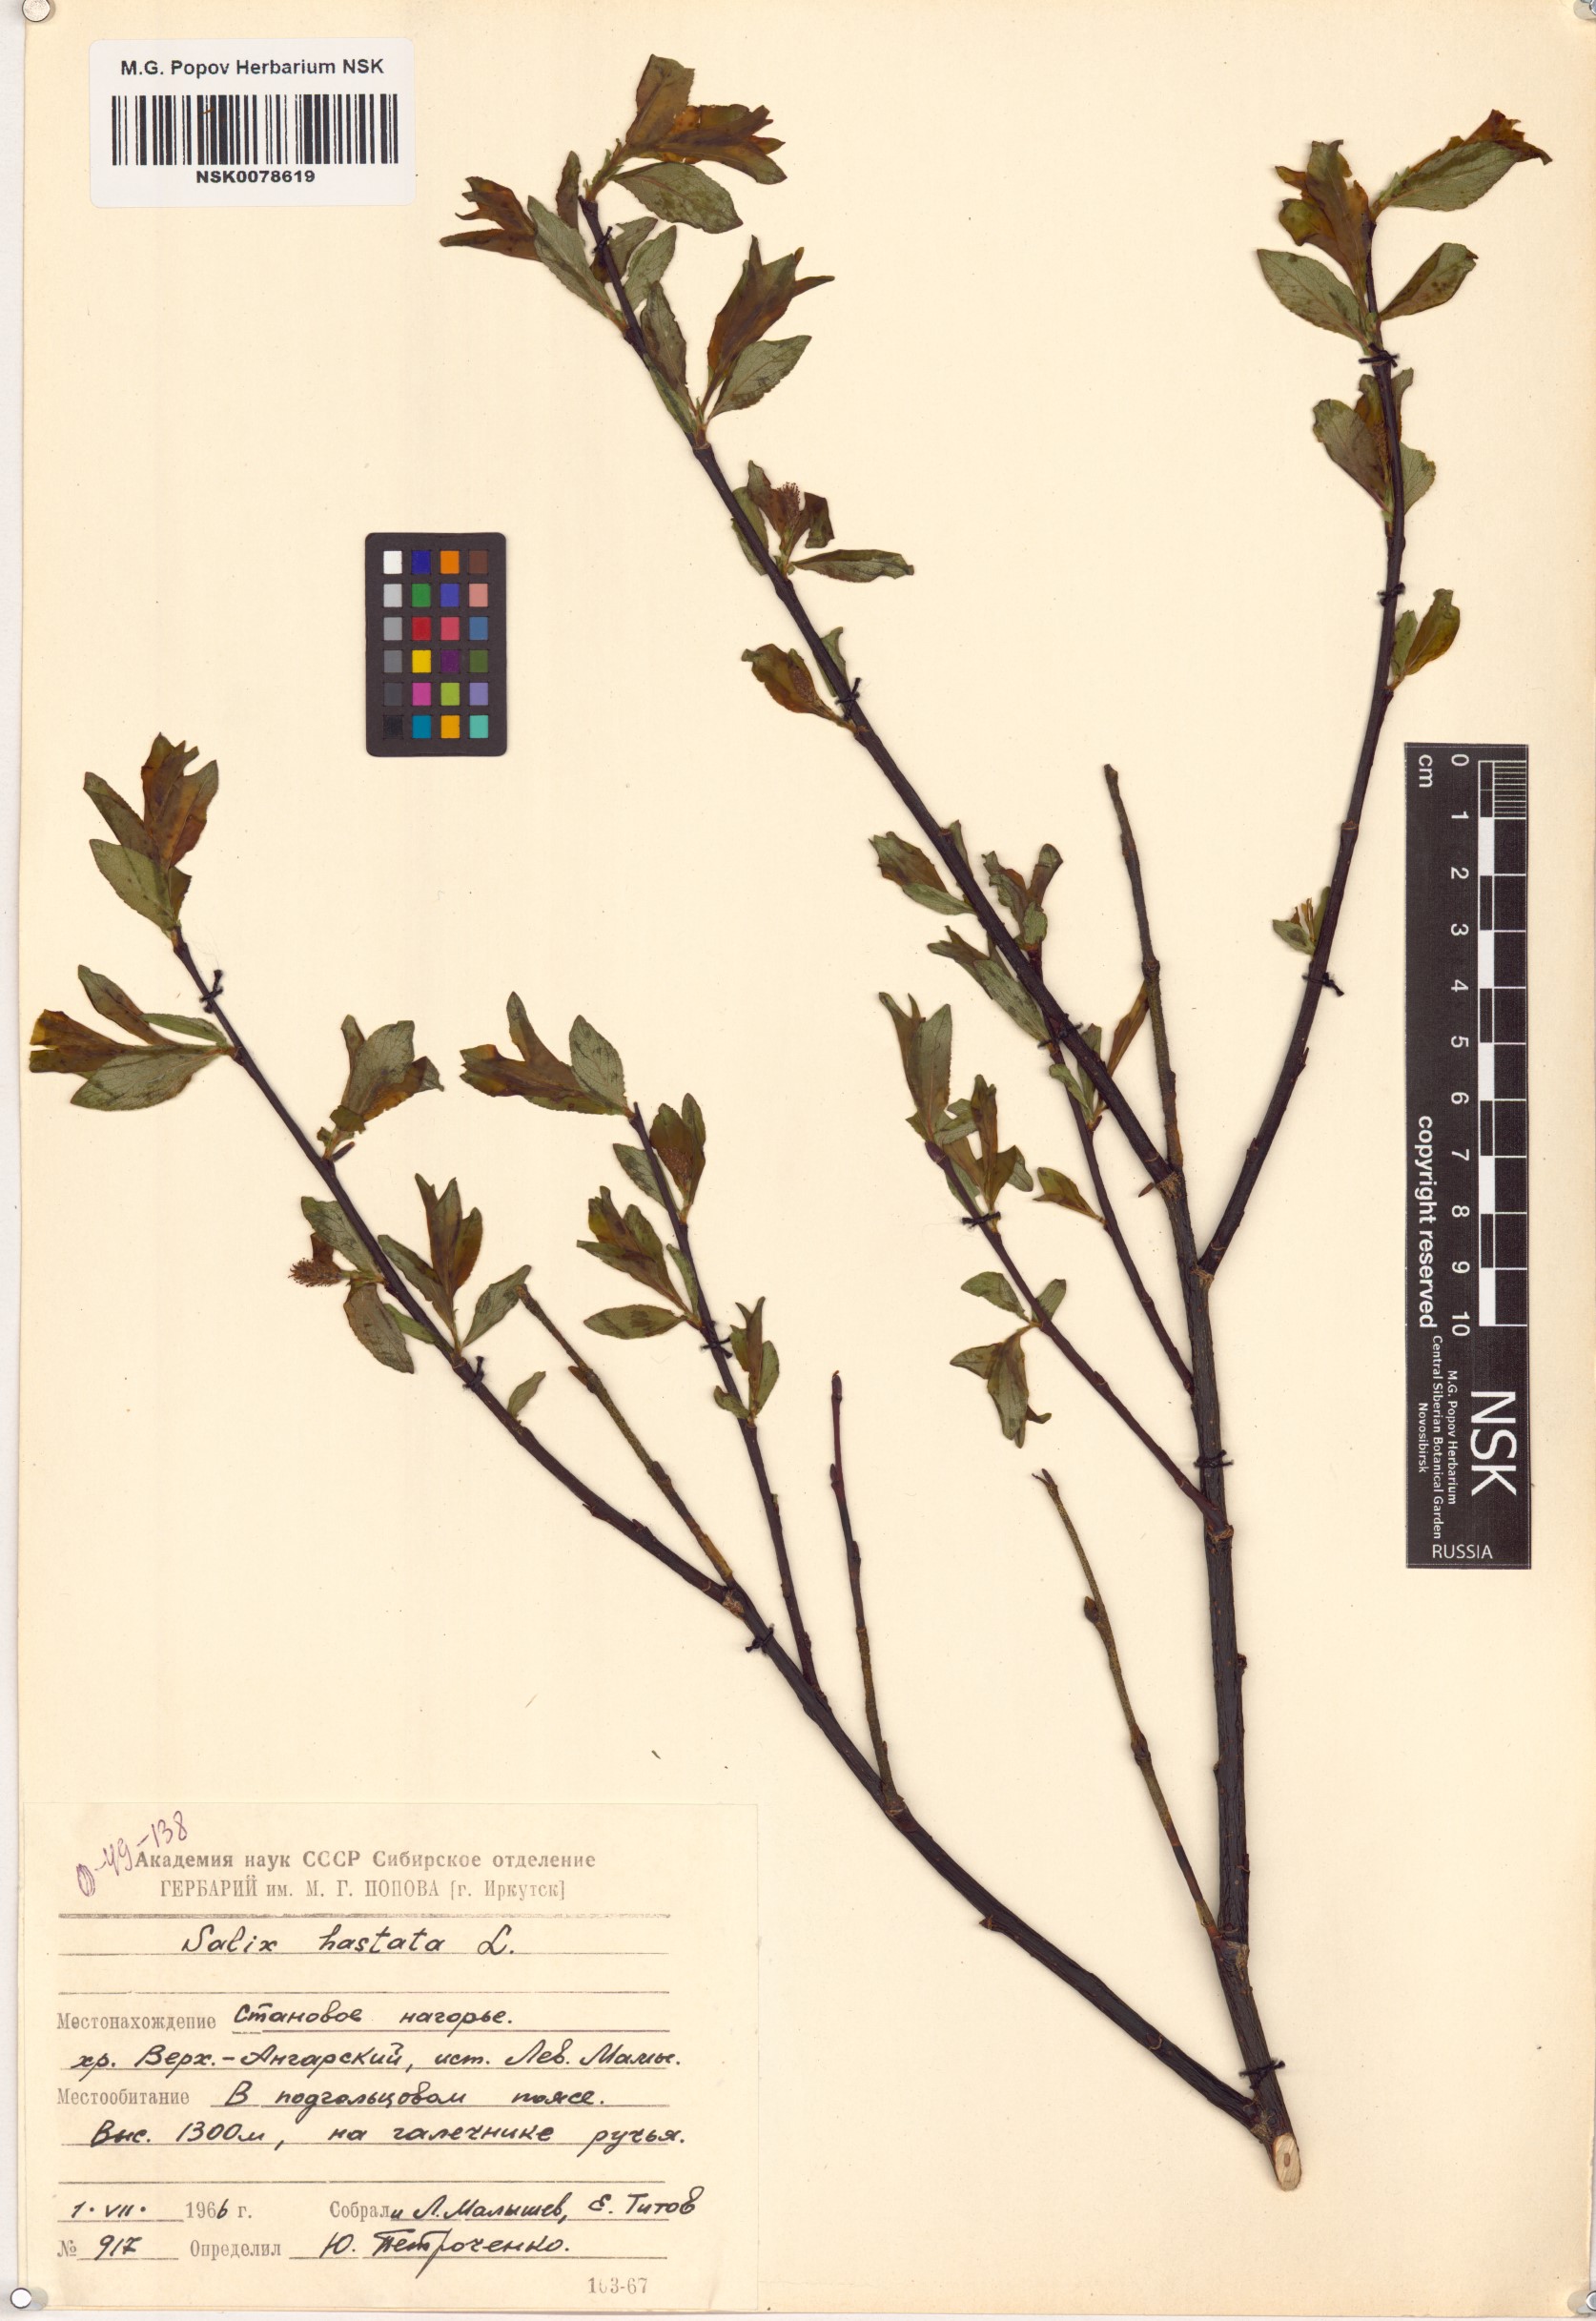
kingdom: Plantae
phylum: Tracheophyta
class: Magnoliopsida
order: Malpighiales
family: Salicaceae
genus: Salix
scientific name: Salix hastata
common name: Halberd willow
